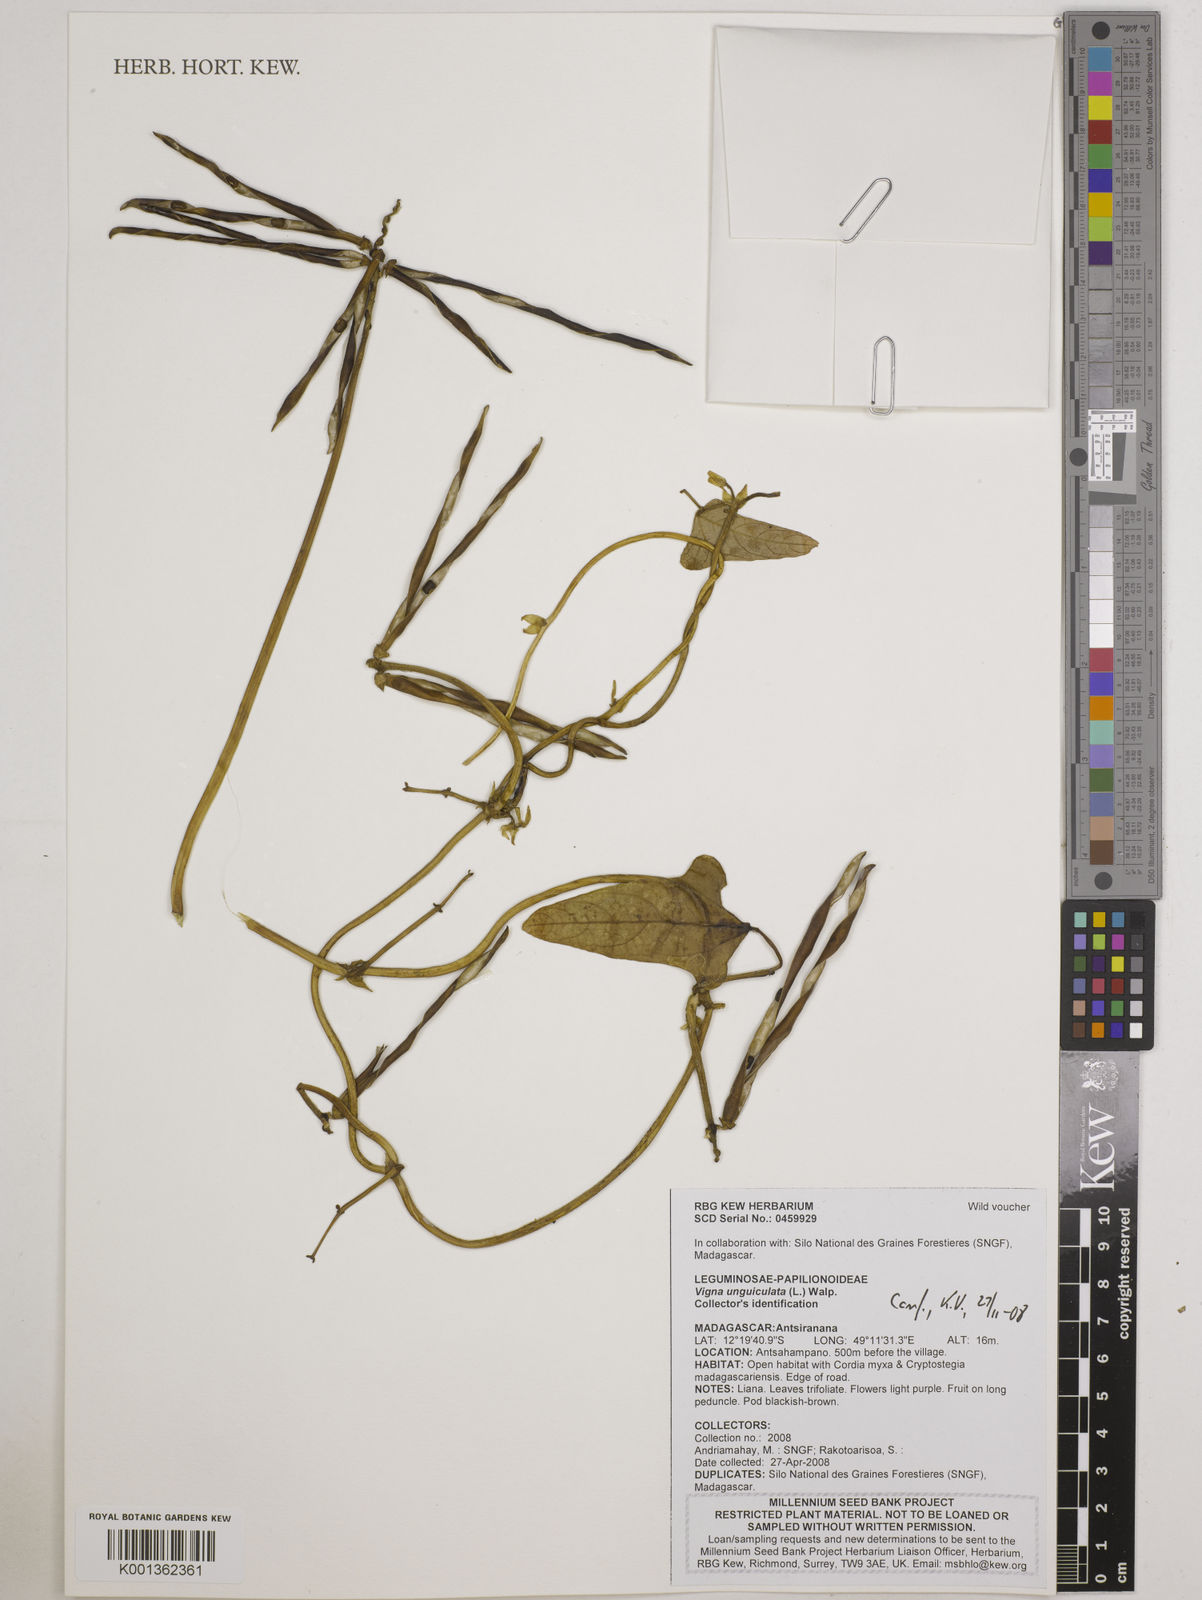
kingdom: Plantae
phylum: Tracheophyta
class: Magnoliopsida
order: Fabales
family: Fabaceae
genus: Vigna
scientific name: Vigna unguiculata
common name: Cowpea
